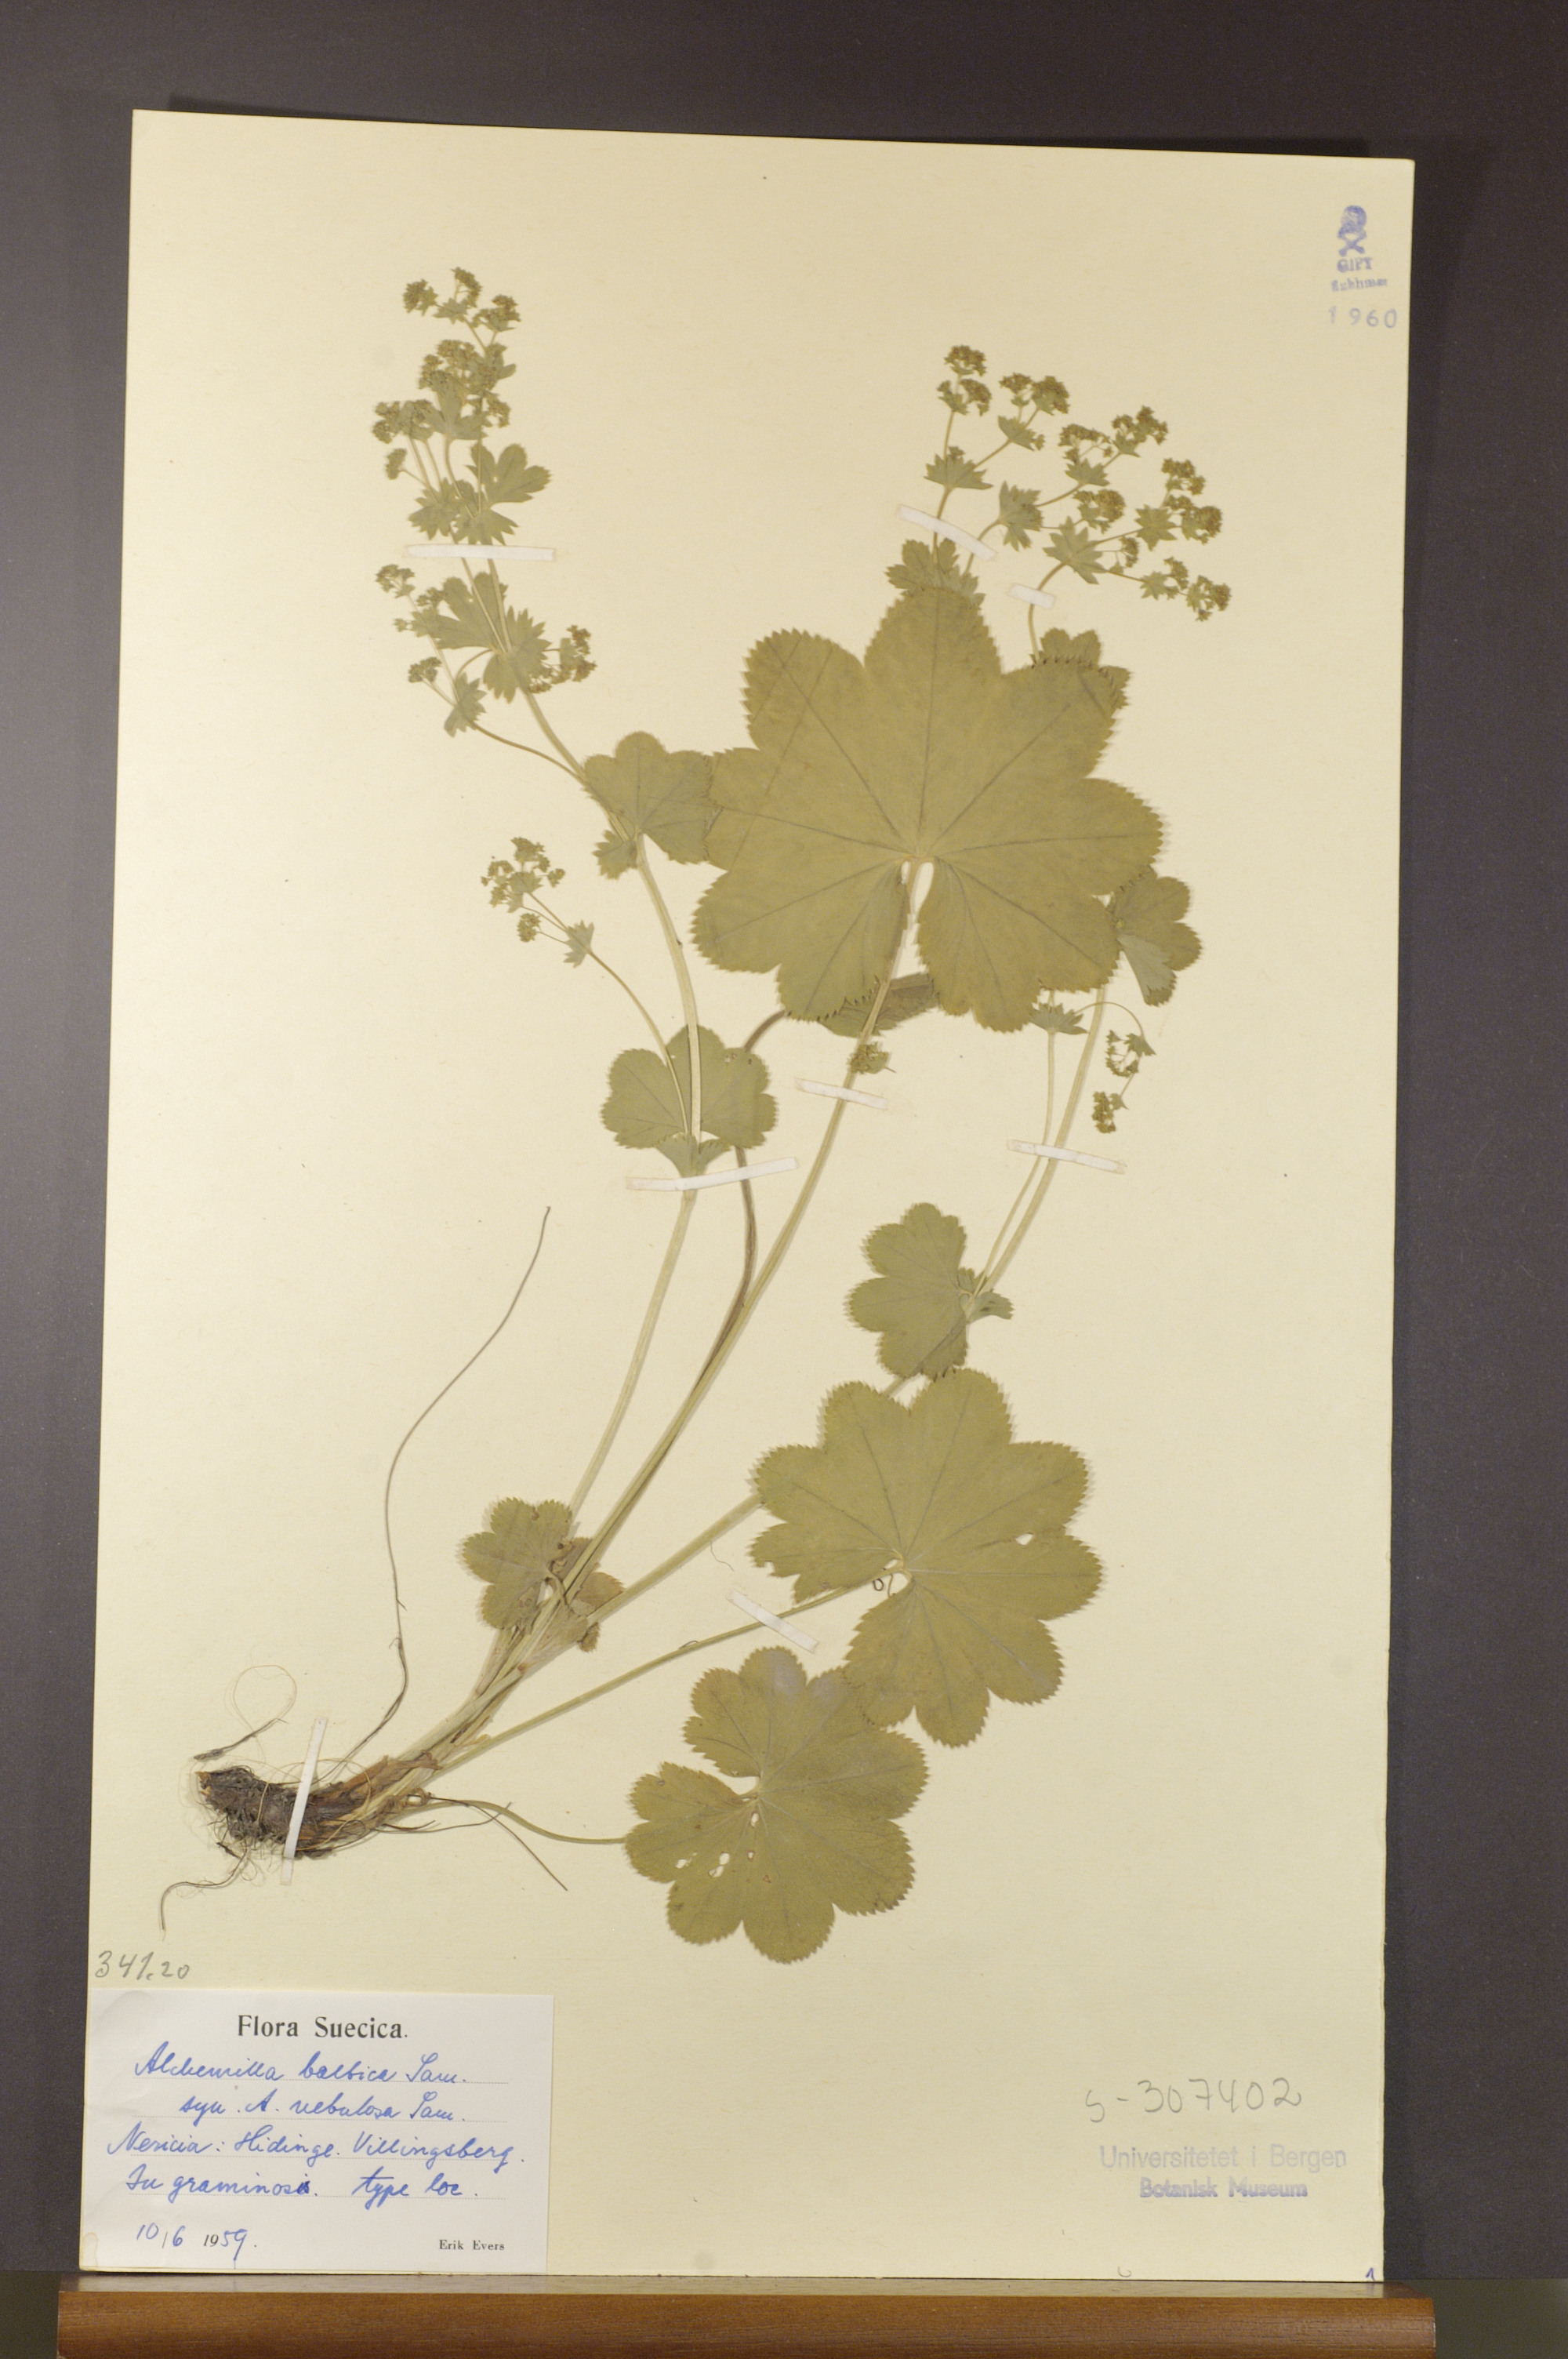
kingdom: Plantae
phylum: Tracheophyta
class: Magnoliopsida
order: Rosales
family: Rosaceae
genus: Alchemilla
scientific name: Alchemilla baltica
